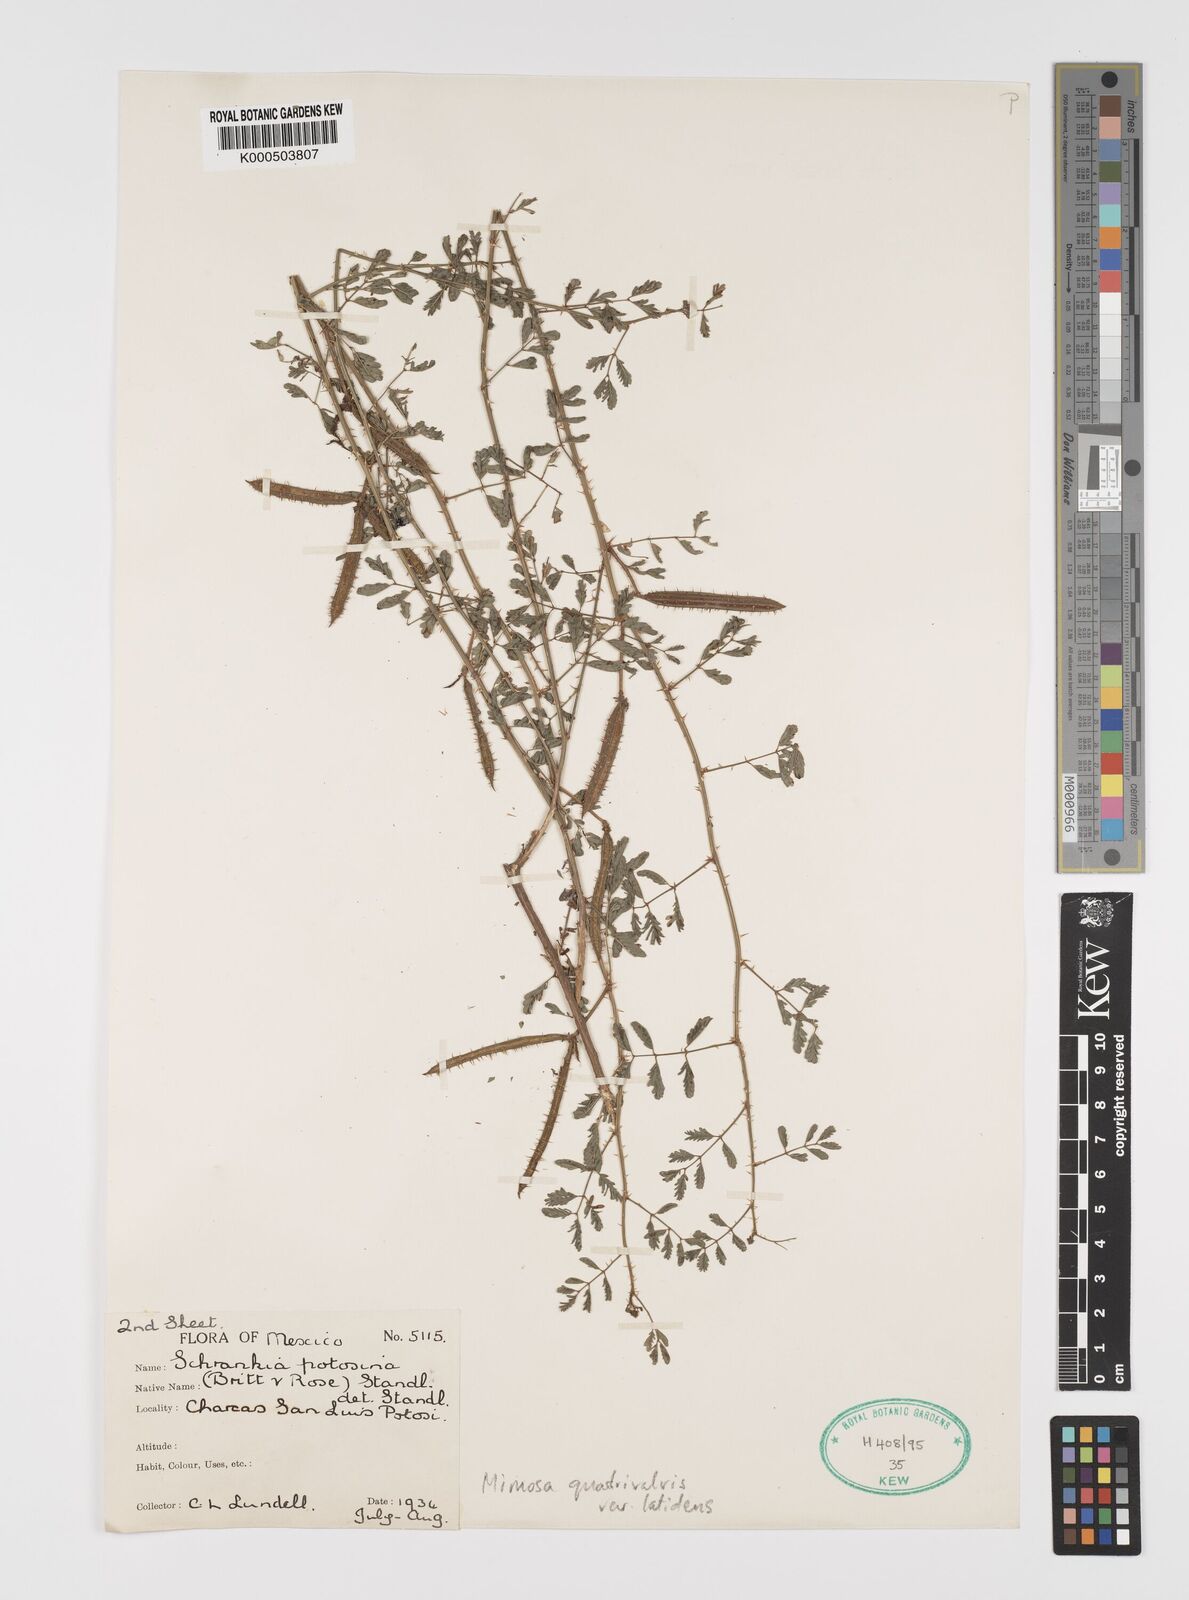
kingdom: Plantae
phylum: Tracheophyta
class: Magnoliopsida
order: Fabales
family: Fabaceae
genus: Mimosa
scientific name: Mimosa latidens
